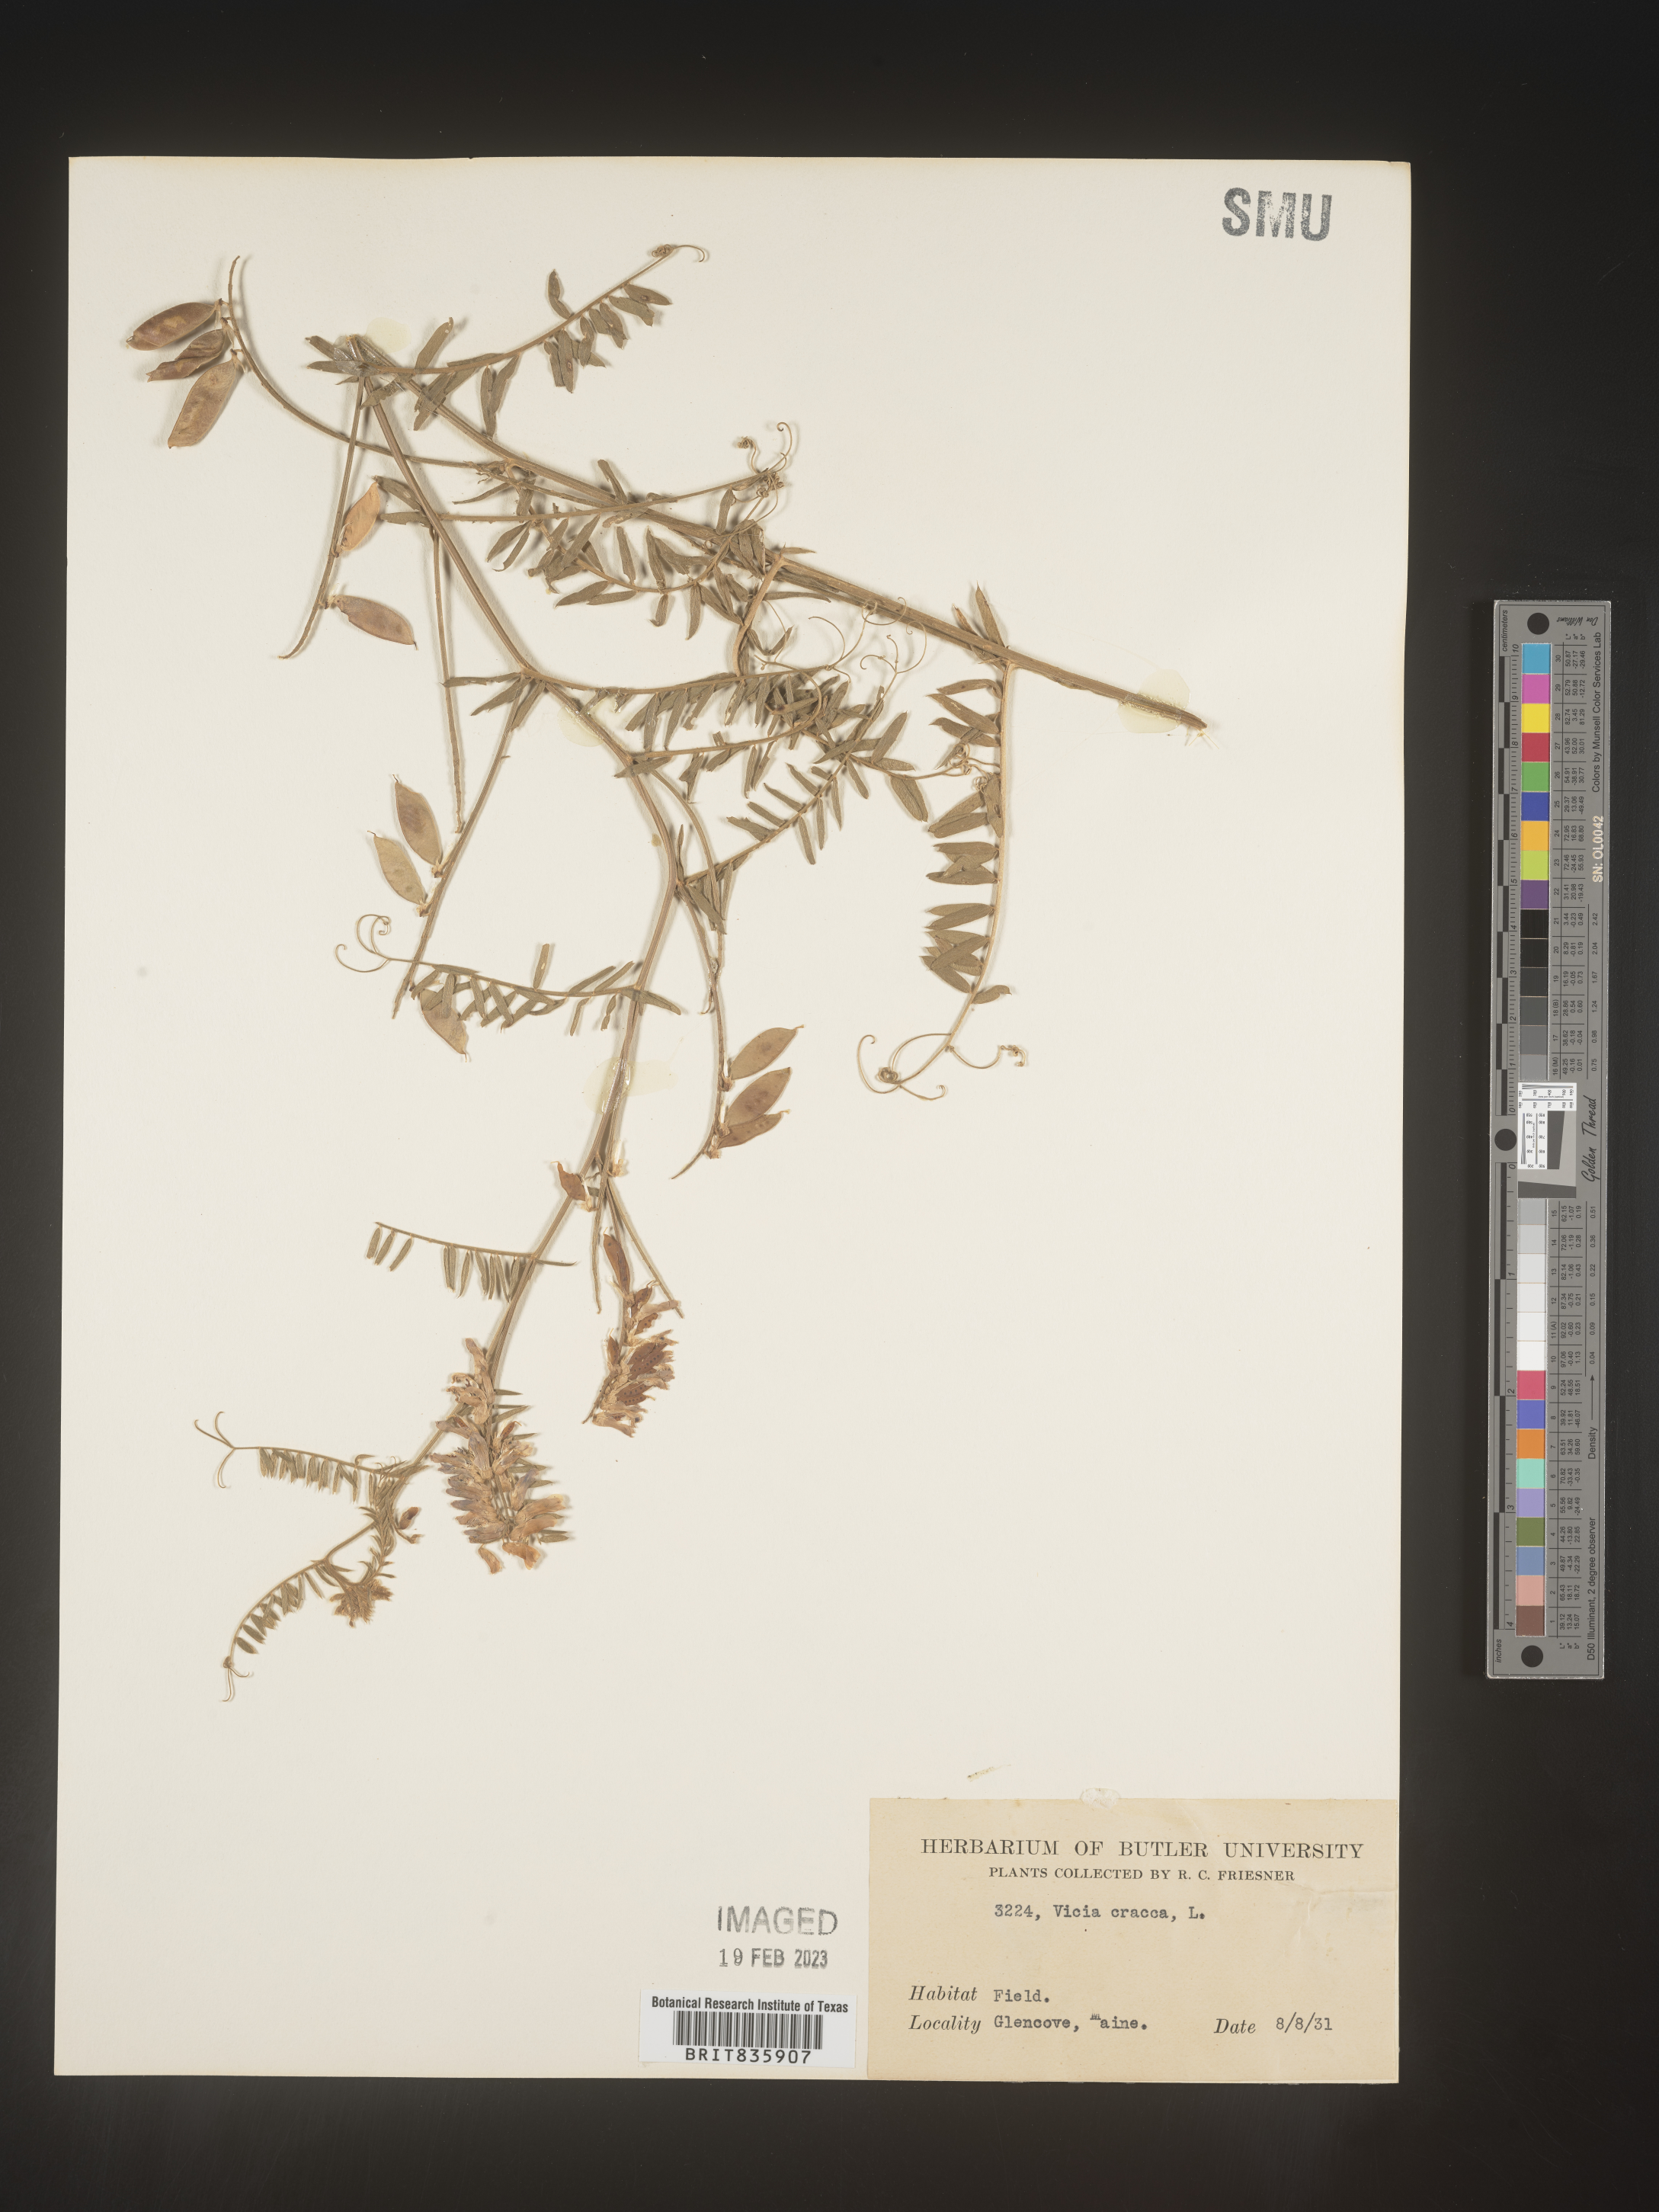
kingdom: Plantae
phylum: Tracheophyta
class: Magnoliopsida
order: Fabales
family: Fabaceae
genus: Vicia
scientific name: Vicia cracca
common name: Bird vetch
